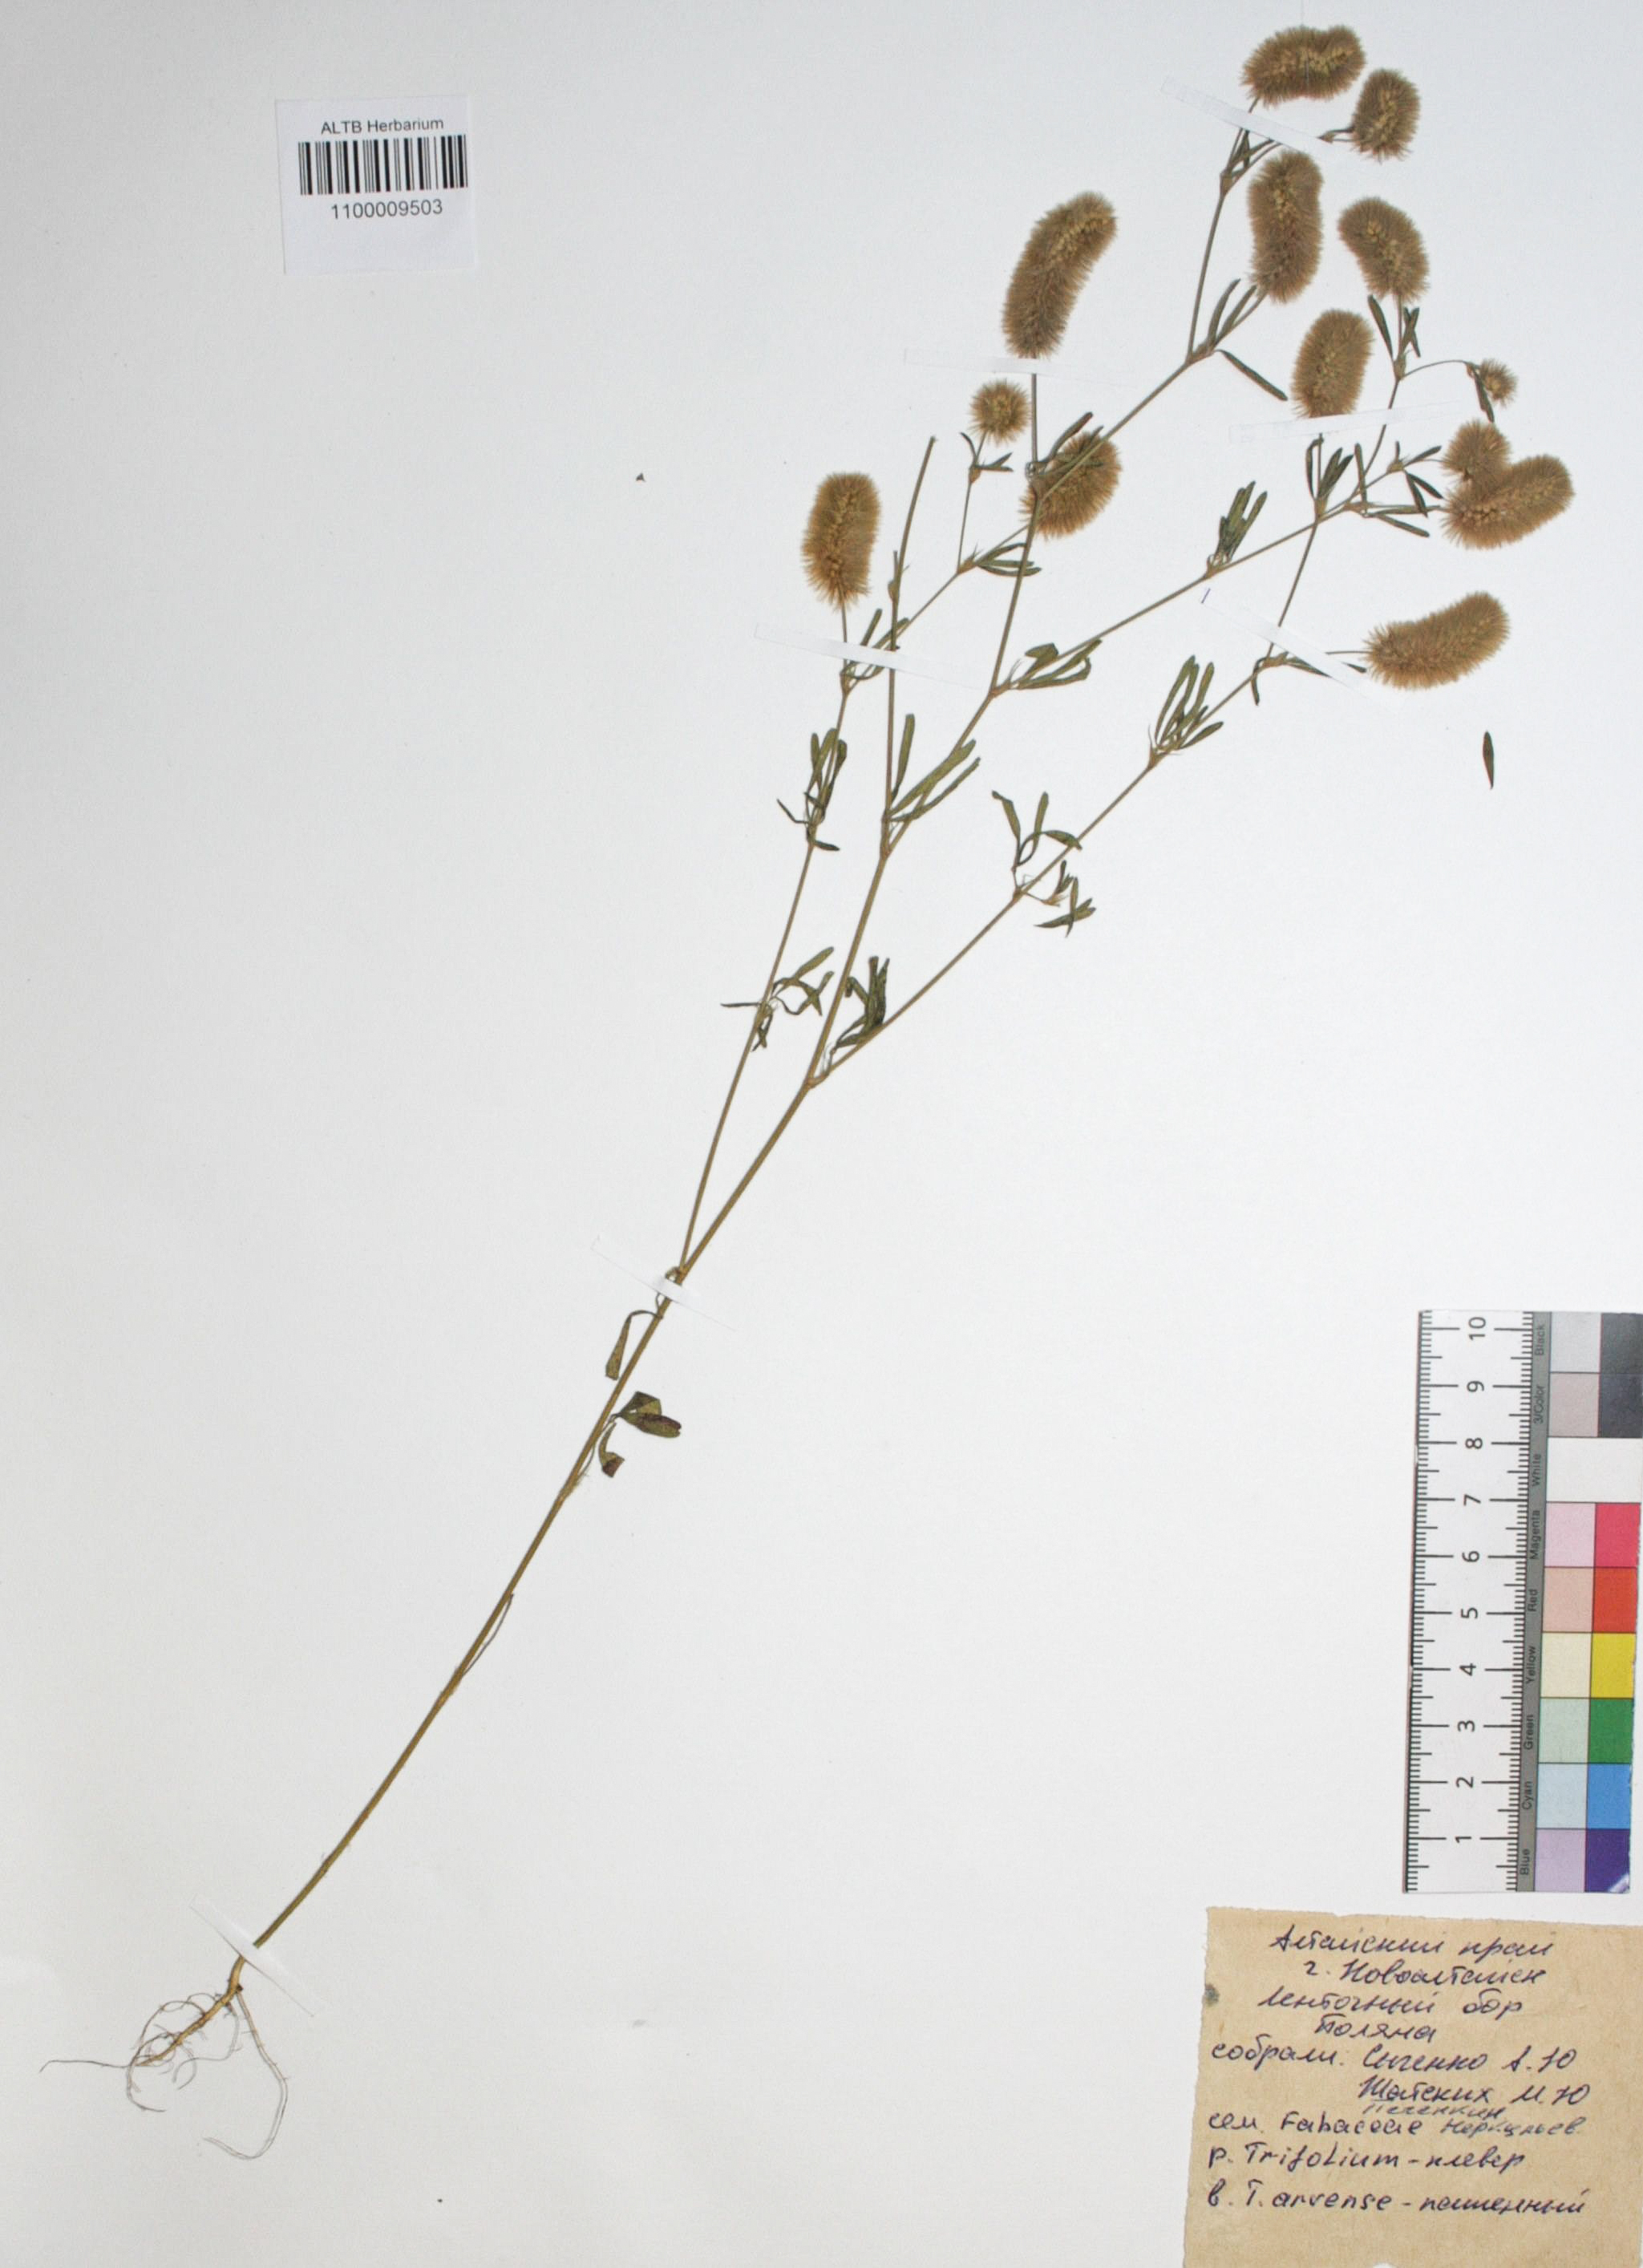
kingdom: Plantae
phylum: Tracheophyta
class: Magnoliopsida
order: Fabales
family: Fabaceae
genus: Trifolium
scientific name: Trifolium arvense
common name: Hare's-foot clover
